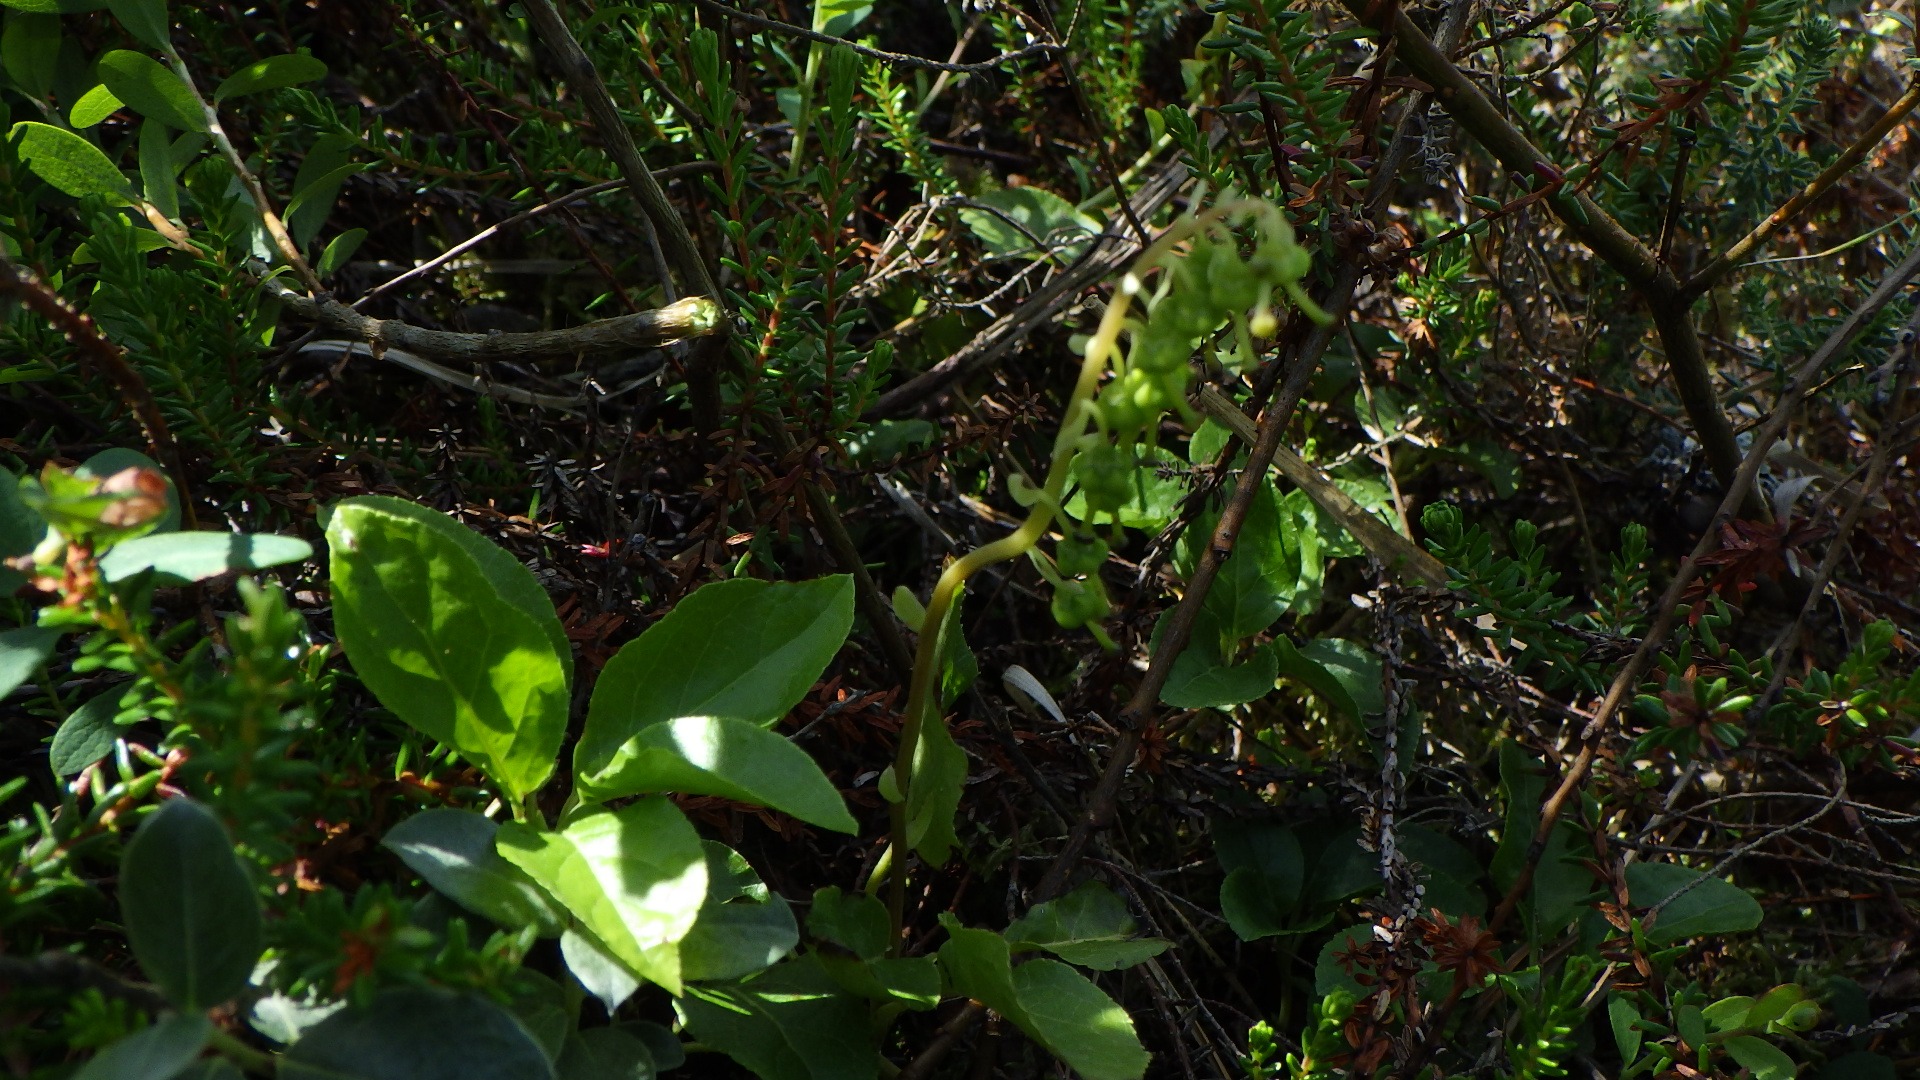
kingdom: Plantae
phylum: Tracheophyta
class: Magnoliopsida
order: Ericales
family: Ericaceae
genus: Orthilia
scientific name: Orthilia secunda
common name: Ensidig vintergrøn
